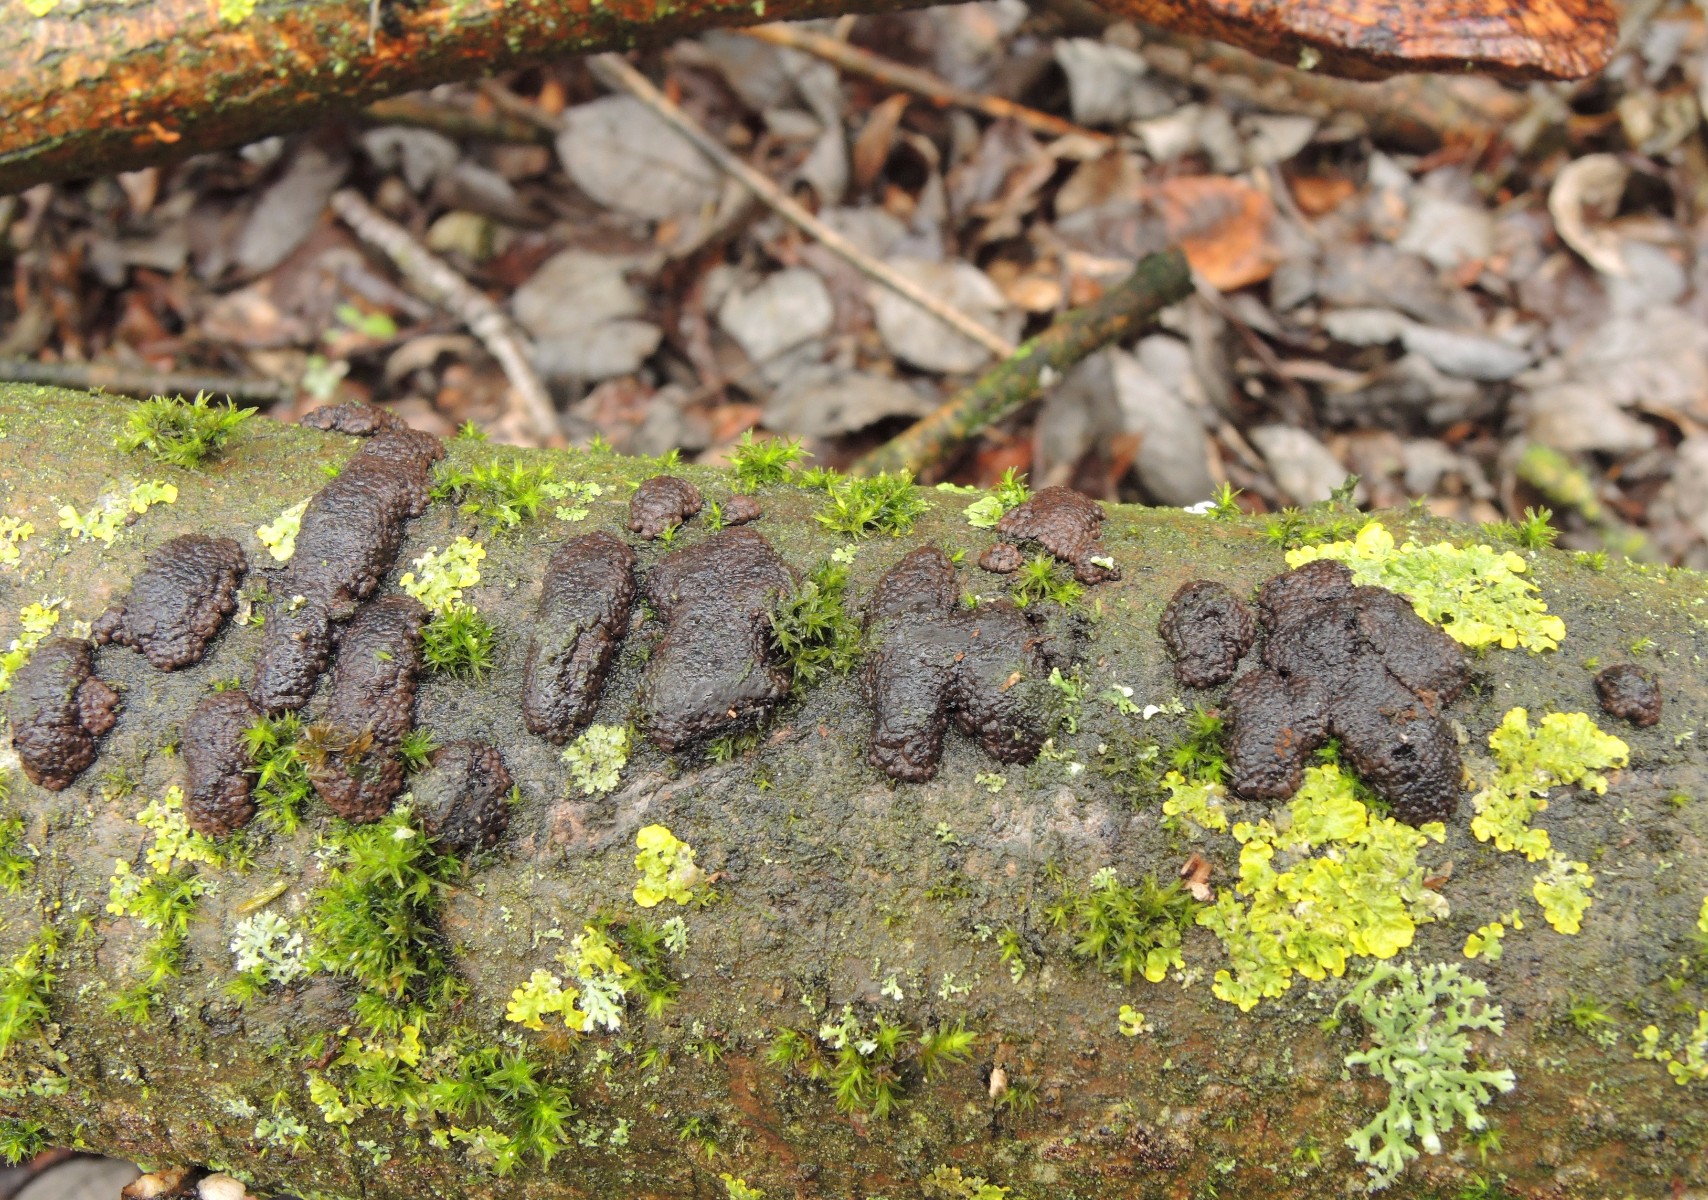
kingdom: Fungi
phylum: Ascomycota
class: Sordariomycetes
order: Xylariales
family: Hypoxylaceae
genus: Jackrogersella
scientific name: Jackrogersella multiformis
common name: foranderlig kulbær
